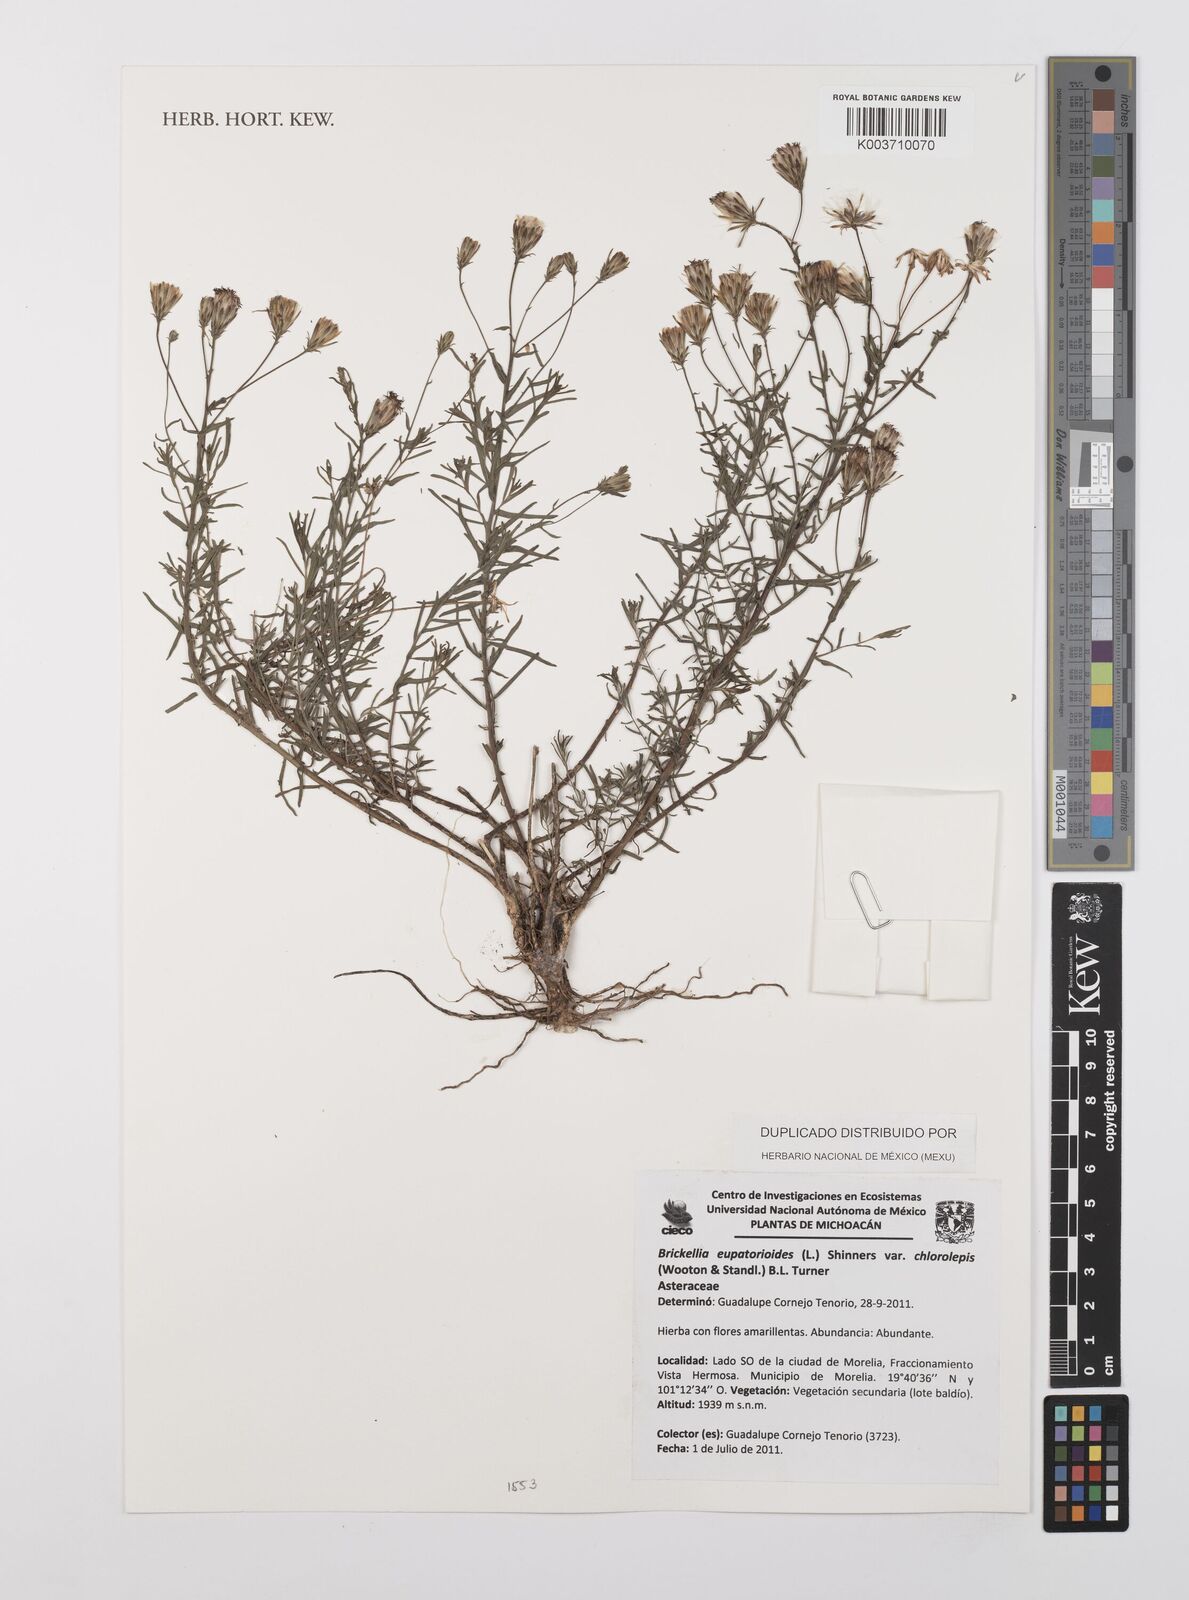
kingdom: Plantae
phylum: Tracheophyta
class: Magnoliopsida
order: Asterales
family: Asteraceae
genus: Brickellia
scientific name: Brickellia eupatorioides
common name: False boneset
